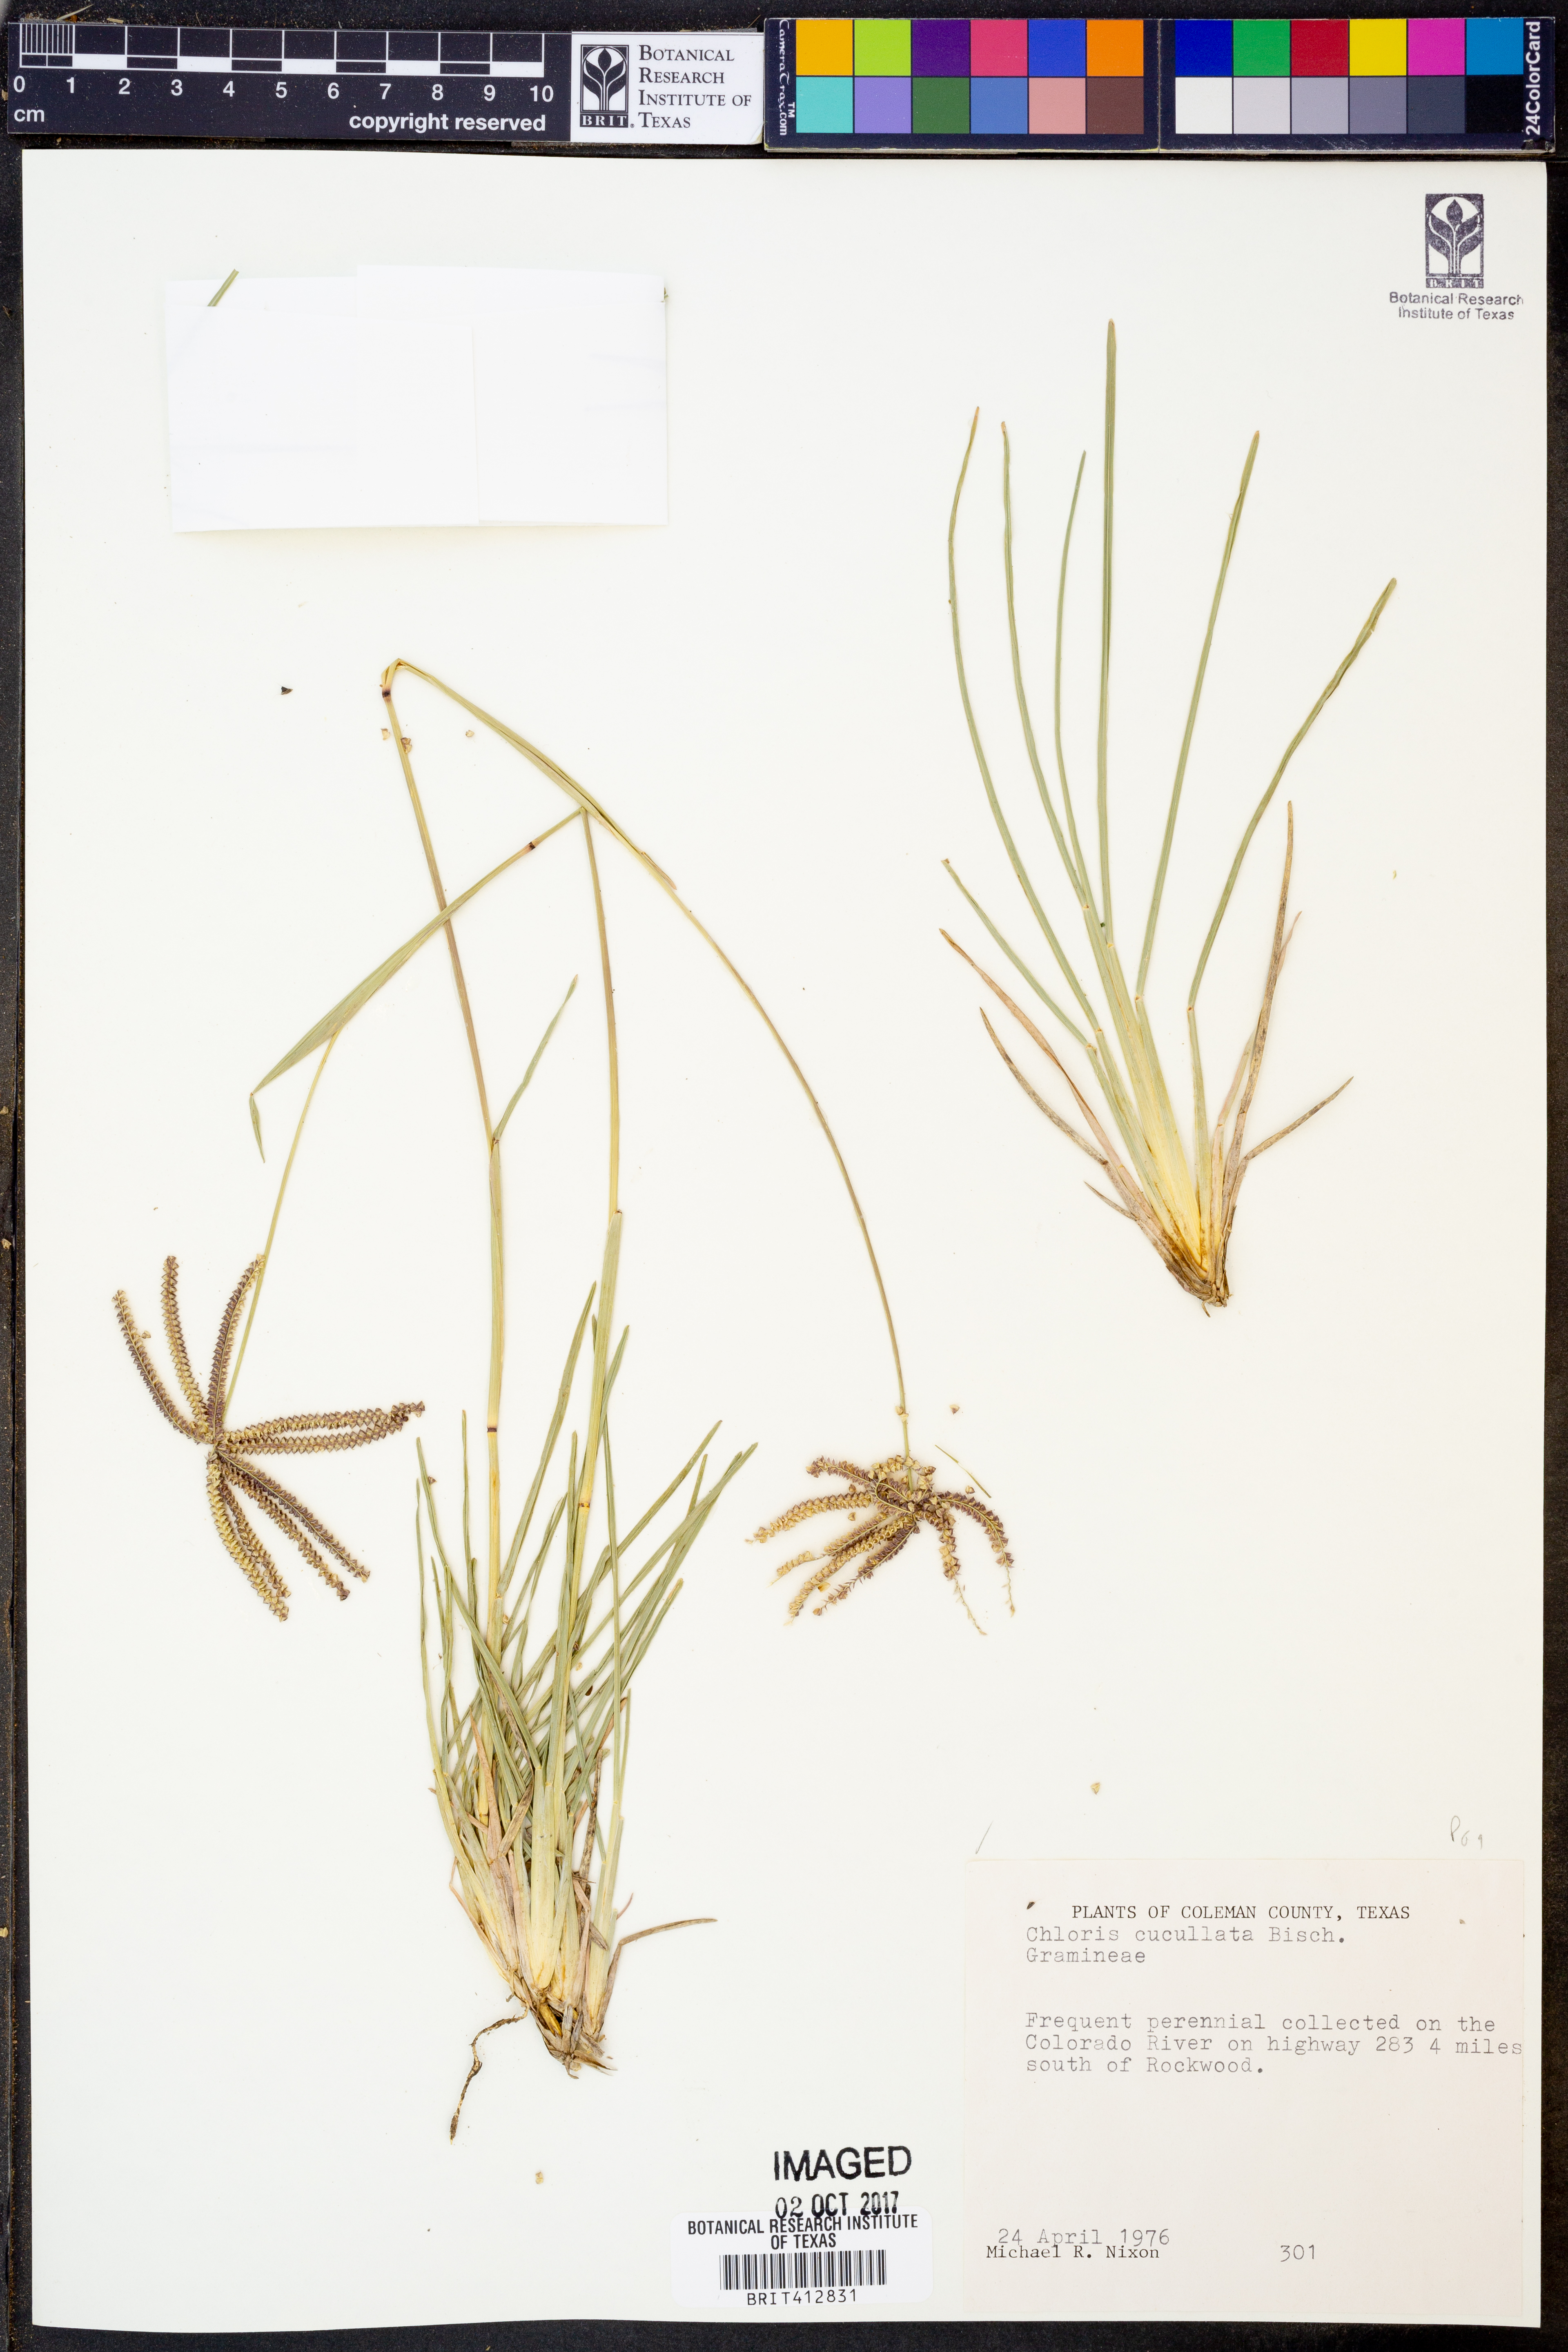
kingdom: Plantae
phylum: Tracheophyta
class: Liliopsida
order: Poales
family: Poaceae
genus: Chloris
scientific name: Chloris cucullata
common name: Hooded windmill grass
